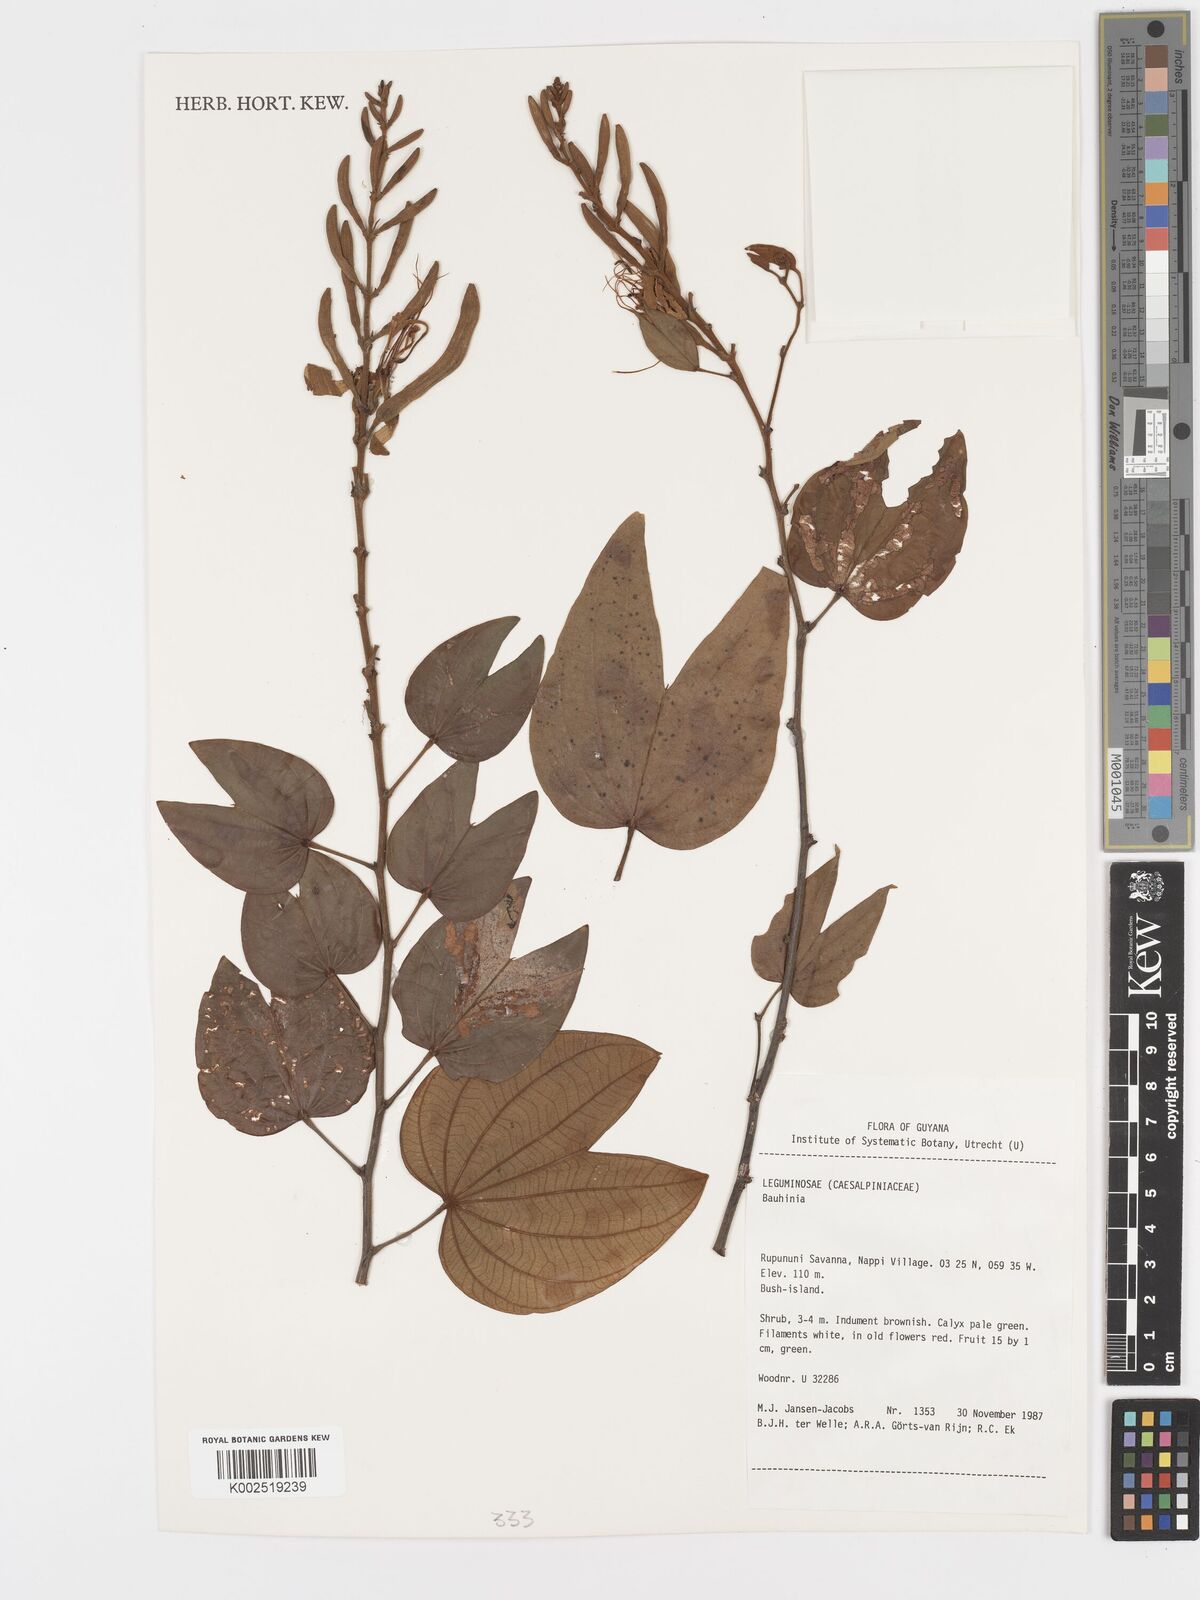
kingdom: Plantae
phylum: Tracheophyta
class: Magnoliopsida
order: Fabales
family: Fabaceae
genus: Bauhinia
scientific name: Bauhinia
